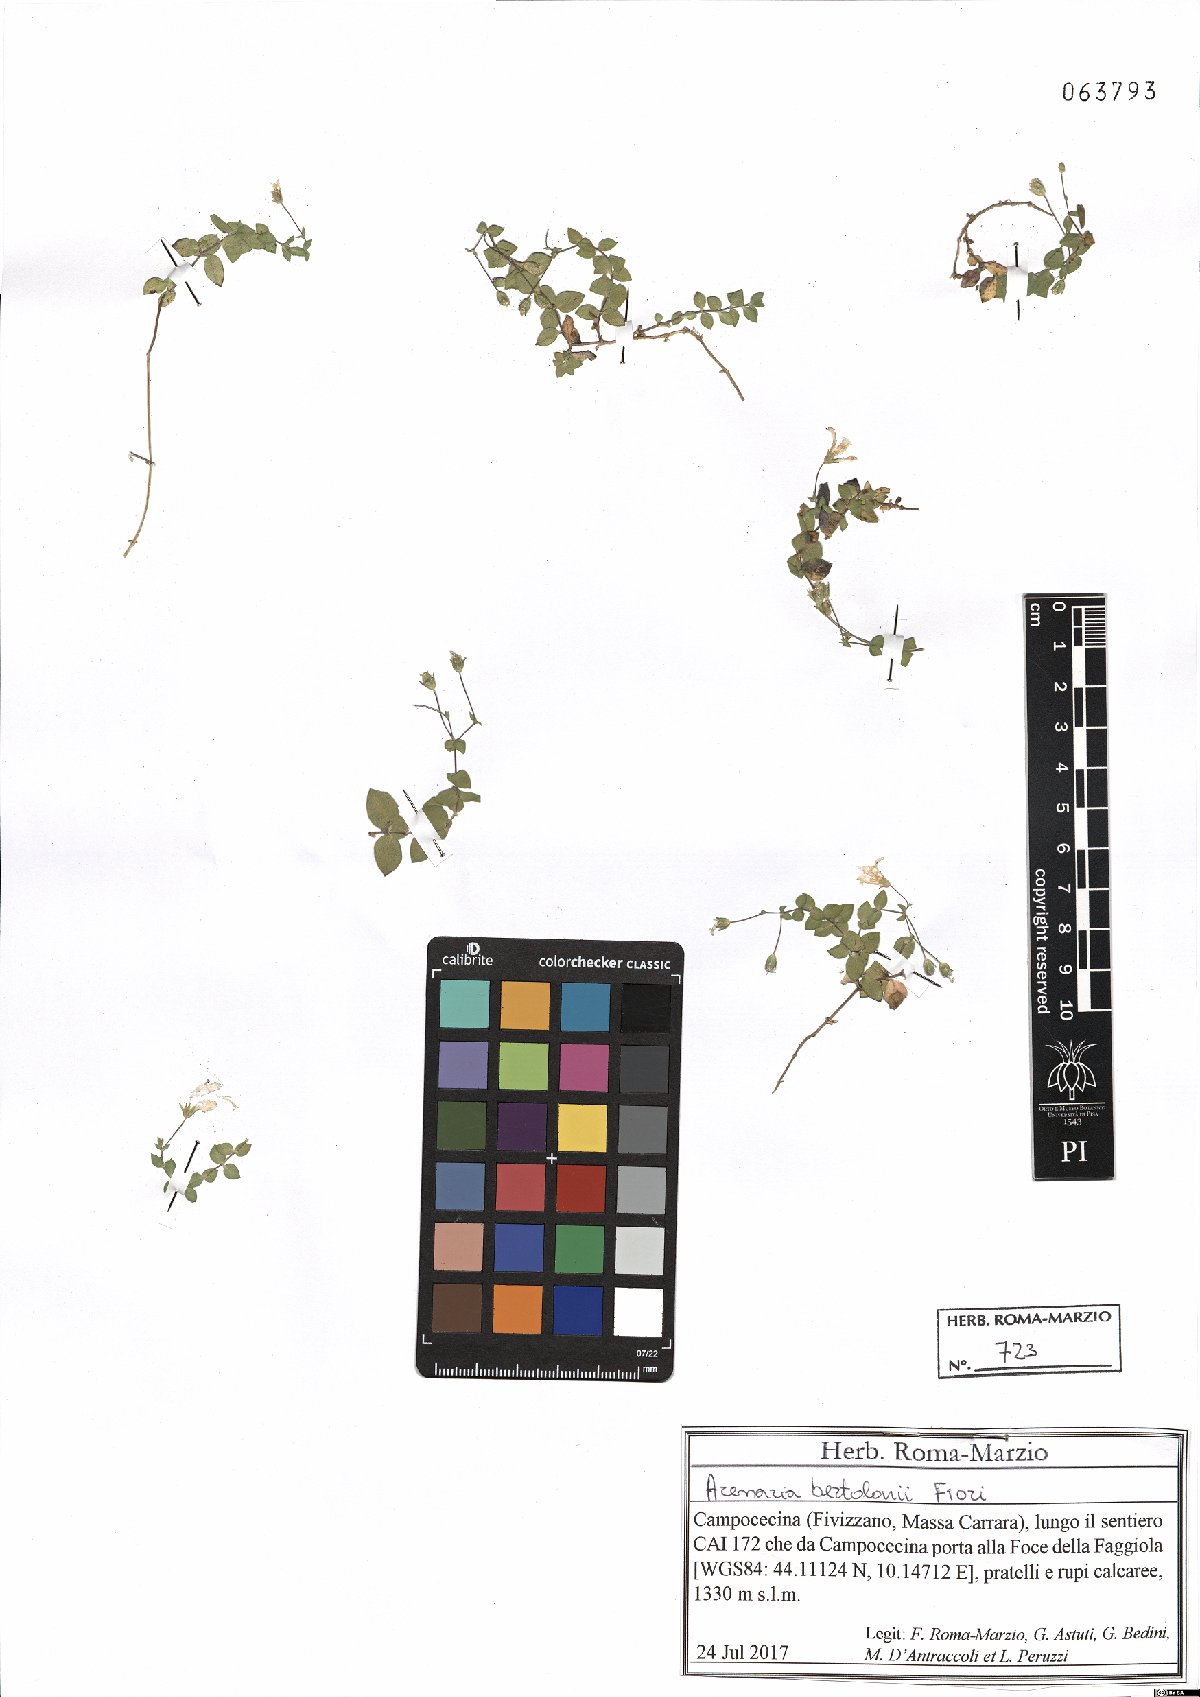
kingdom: Plantae
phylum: Tracheophyta
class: Magnoliopsida
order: Caryophyllales
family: Caryophyllaceae
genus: Arenaria
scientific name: Arenaria bertolonii
